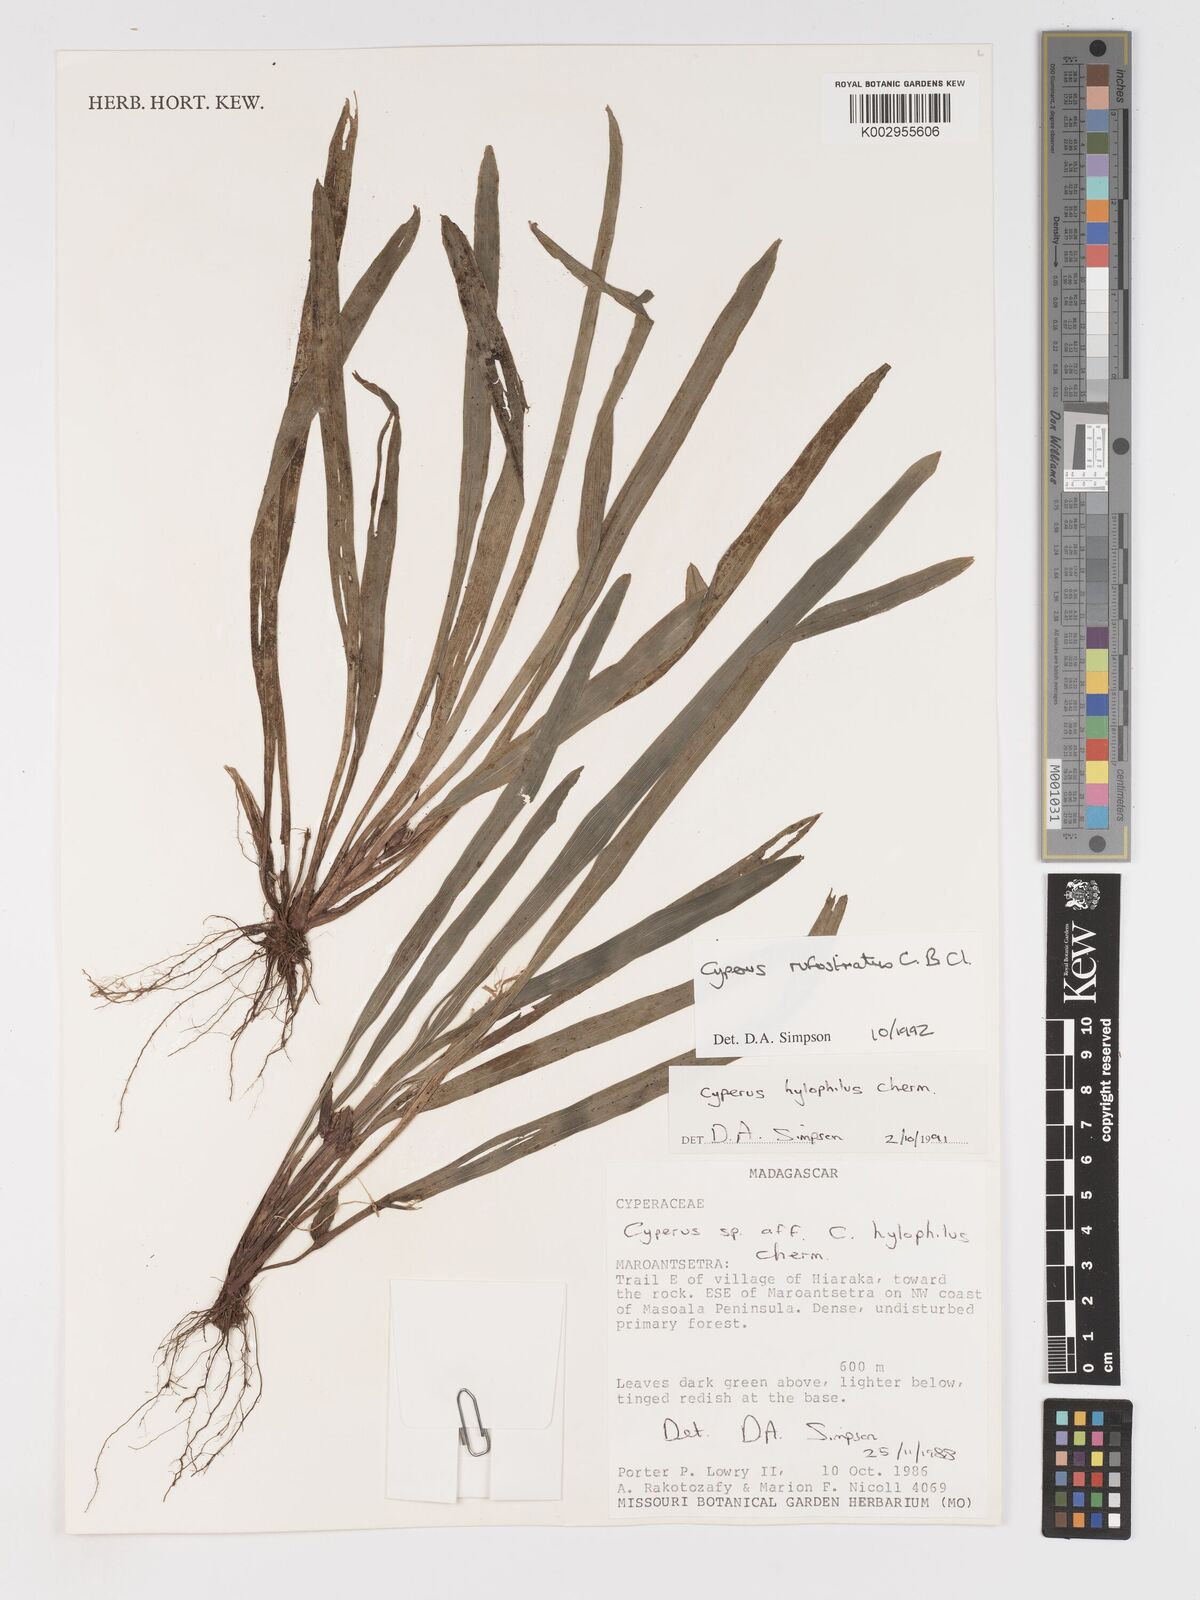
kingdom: Plantae
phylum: Tracheophyta
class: Liliopsida
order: Poales
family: Cyperaceae
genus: Cyperus
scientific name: Cyperus rufostriatus
